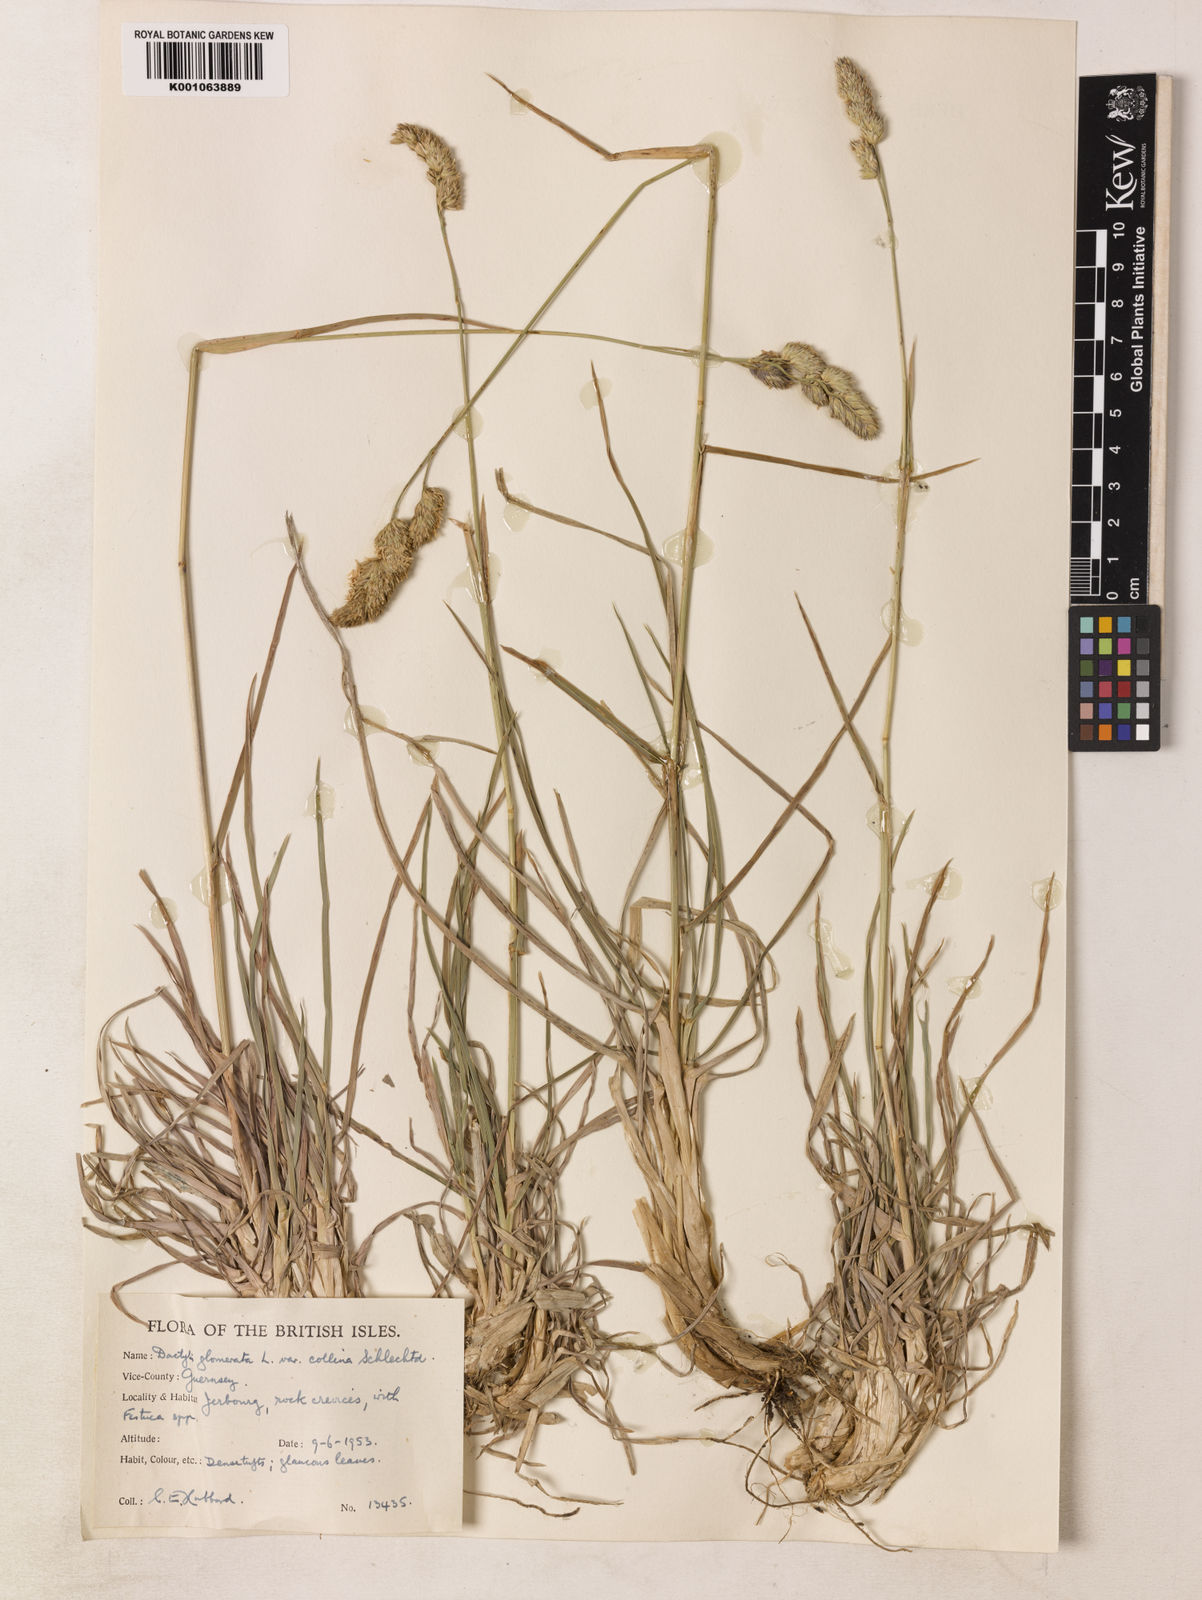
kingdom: Plantae
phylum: Tracheophyta
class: Liliopsida
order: Poales
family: Poaceae
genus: Dactylis
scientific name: Dactylis glomerata
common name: Orchardgrass
